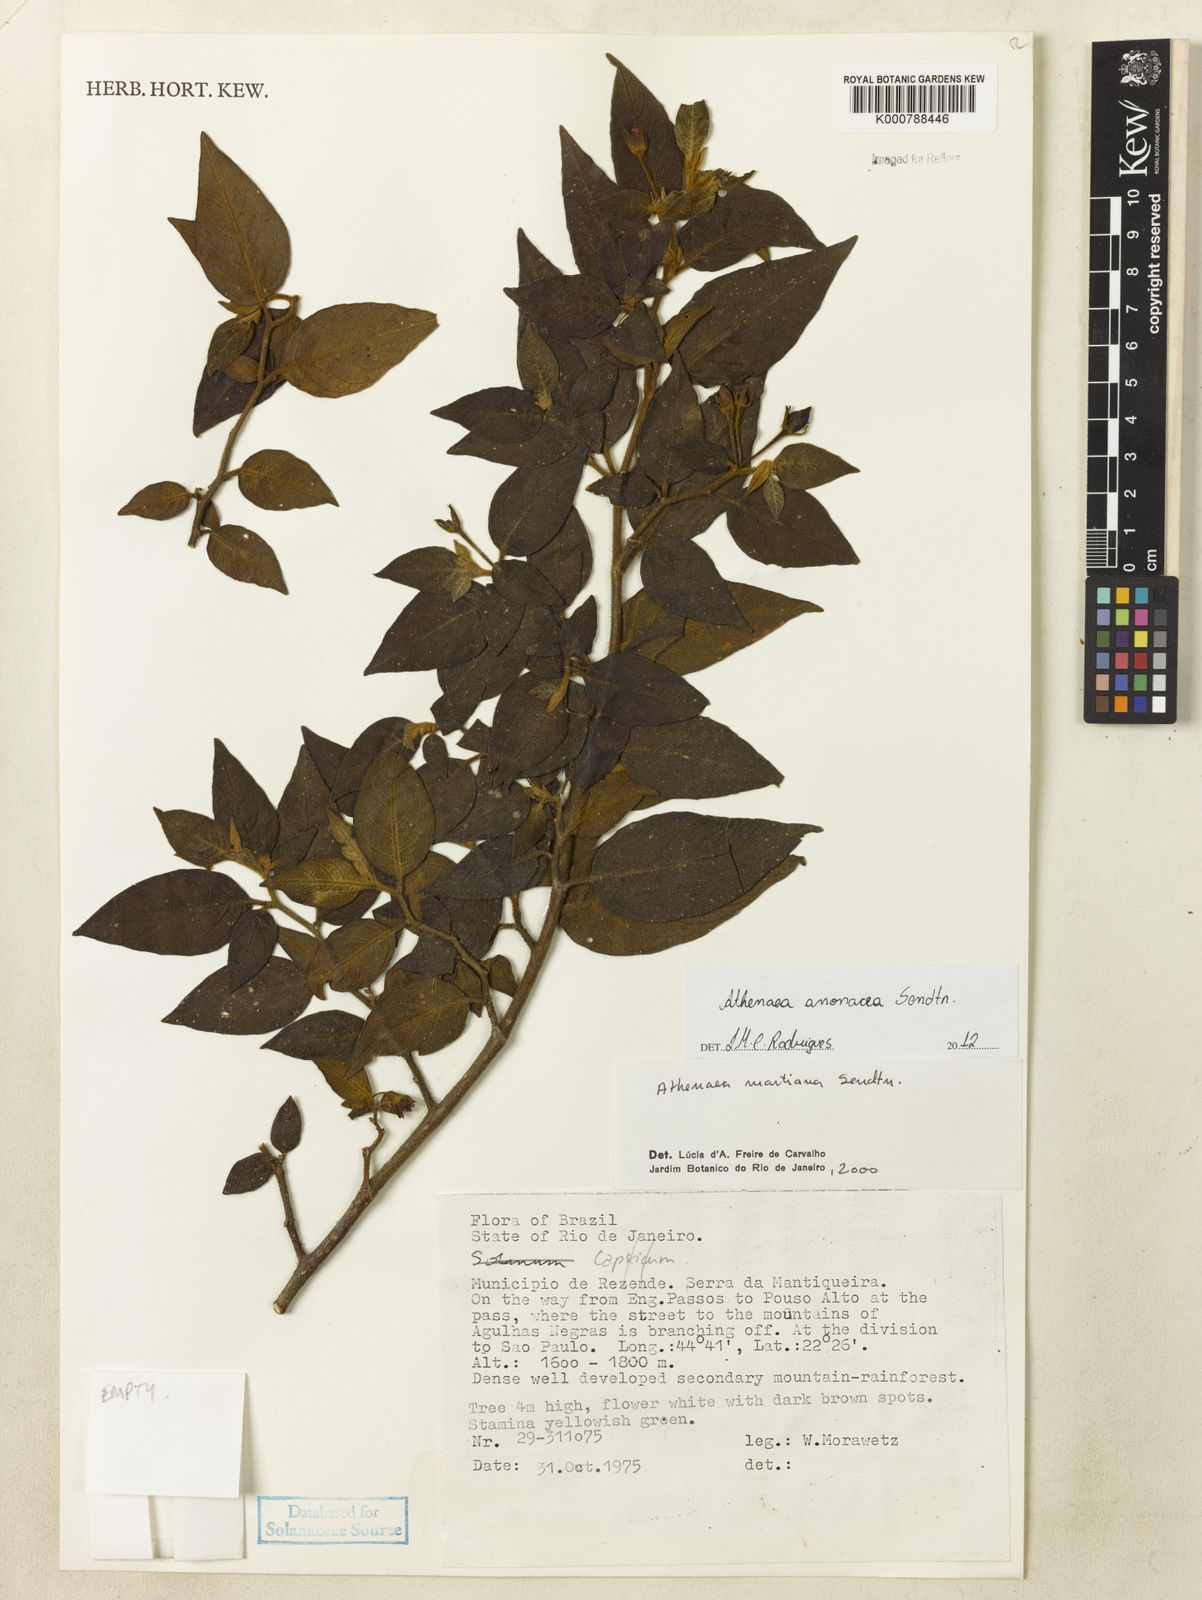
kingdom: Plantae
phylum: Tracheophyta
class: Magnoliopsida
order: Solanales
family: Solanaceae
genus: Athenaea
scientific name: Athenaea anonacea
